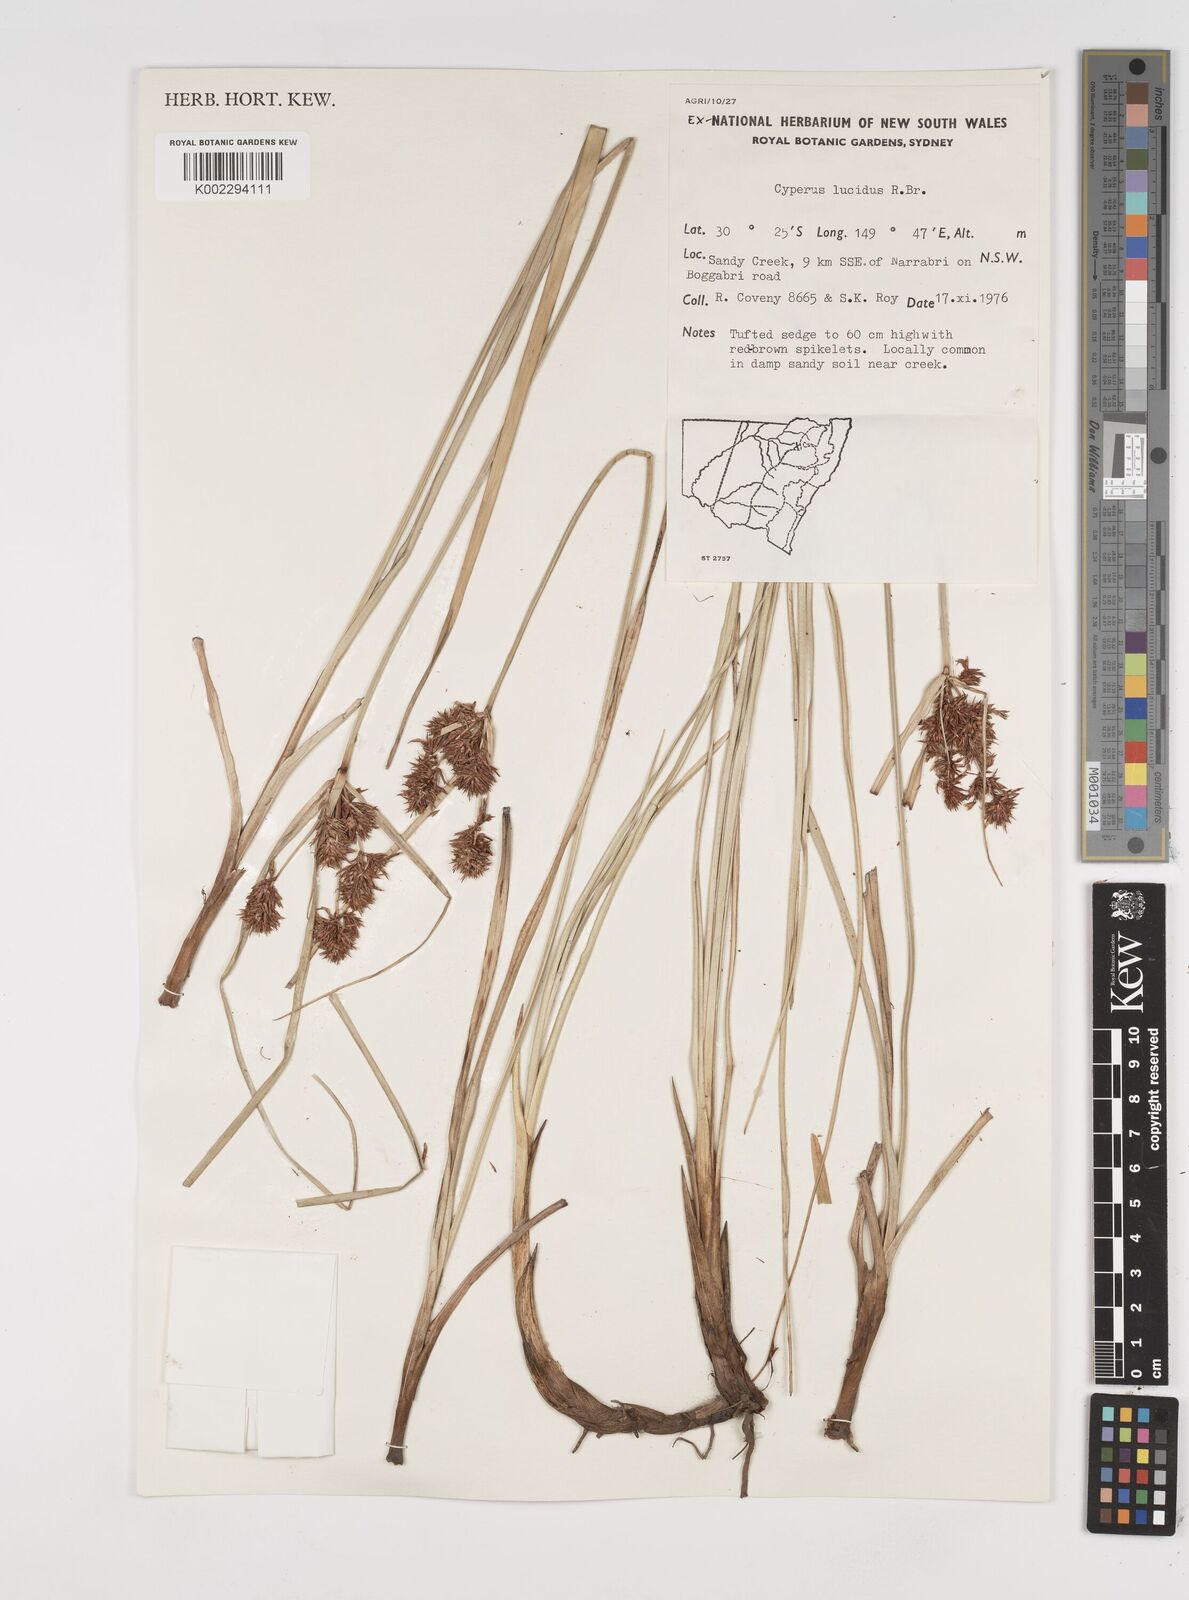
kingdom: Plantae
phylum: Tracheophyta
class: Liliopsida
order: Poales
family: Cyperaceae
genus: Cyperus
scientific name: Cyperus lucidus
